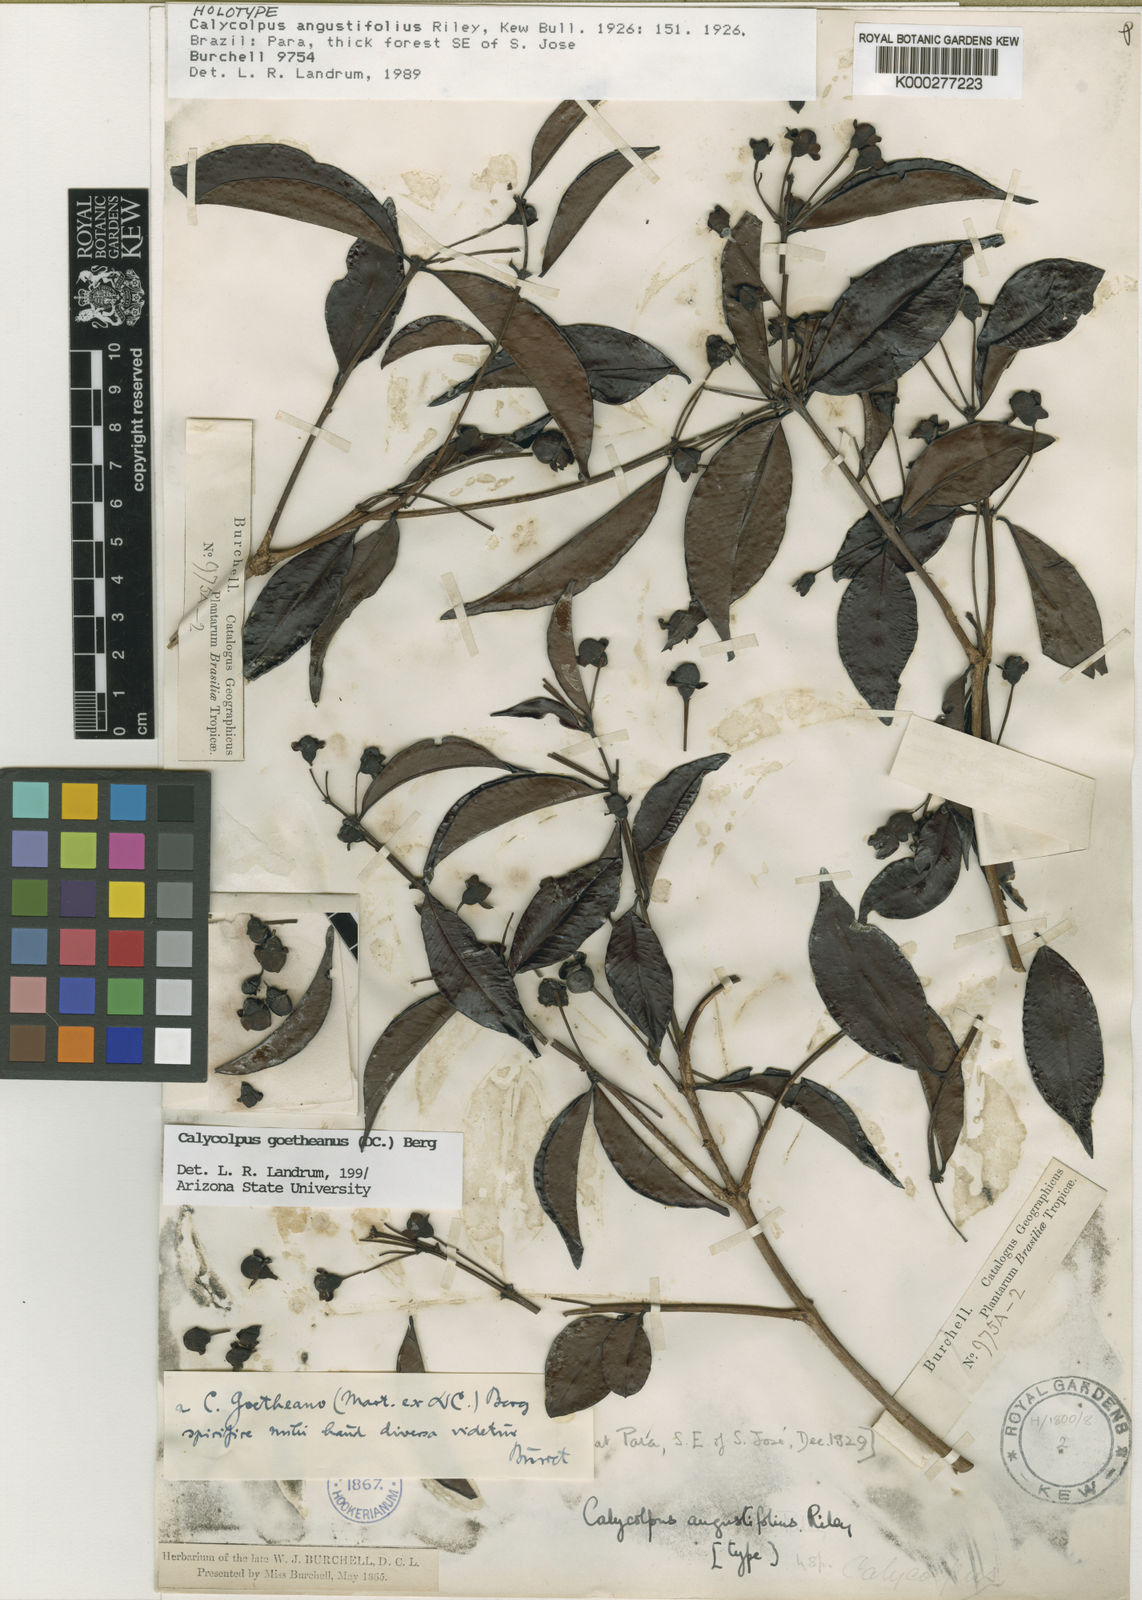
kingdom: Plantae
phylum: Tracheophyta
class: Magnoliopsida
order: Myrtales
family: Myrtaceae
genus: Calycolpus
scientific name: Calycolpus goetheanus
